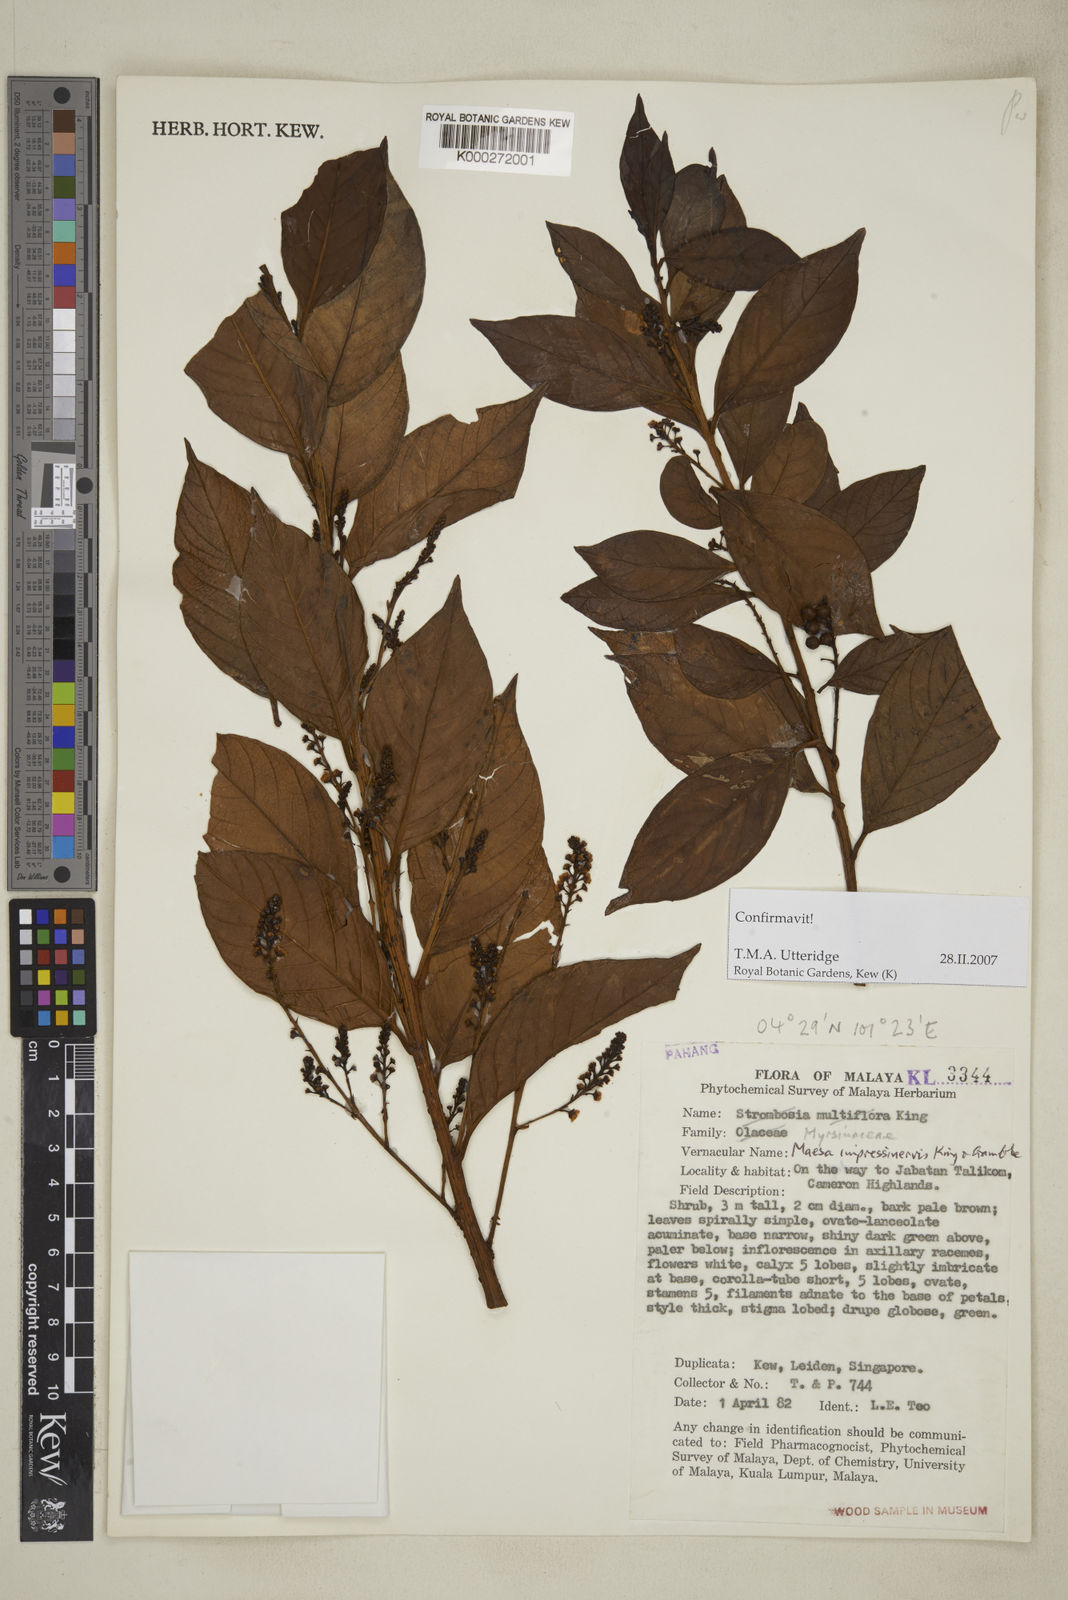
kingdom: Plantae
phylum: Tracheophyta
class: Magnoliopsida
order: Ericales
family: Primulaceae
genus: Maesa
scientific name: Maesa impressinervis
